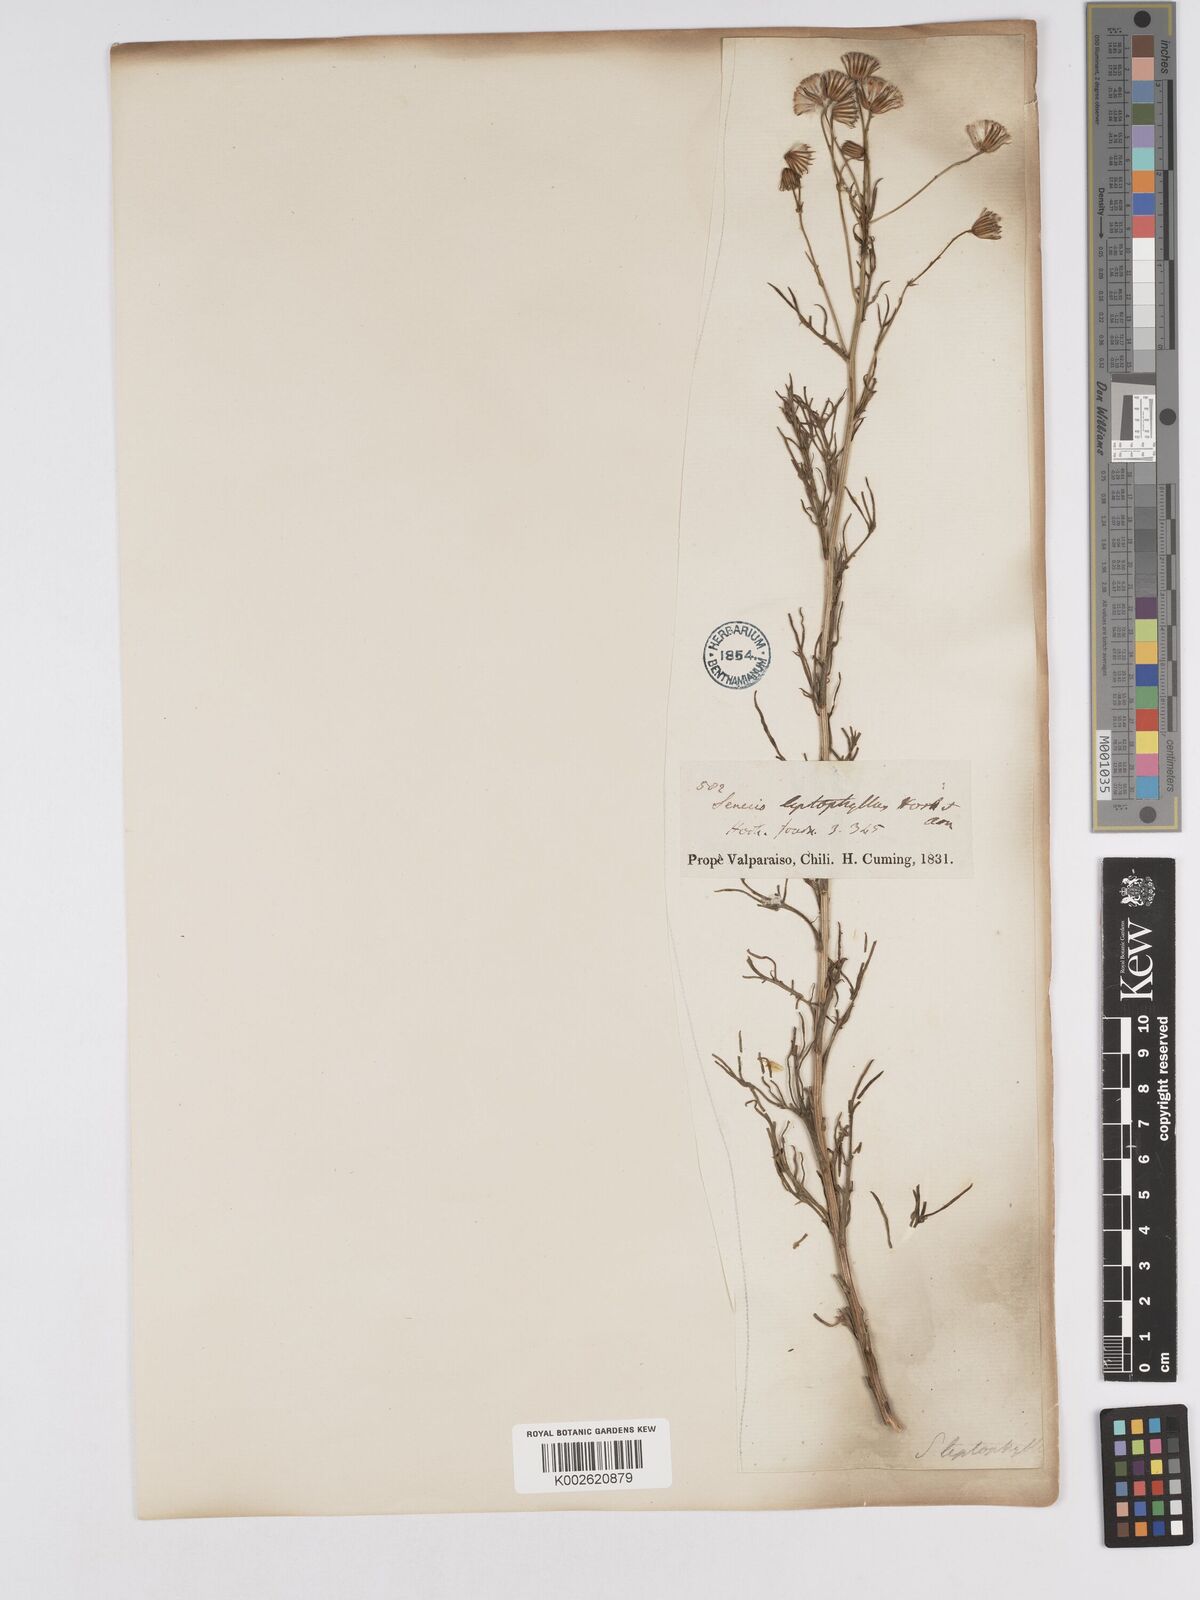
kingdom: Plantae
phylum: Tracheophyta
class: Magnoliopsida
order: Asterales
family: Asteraceae
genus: Senecio
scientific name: Senecio hakeifolius
